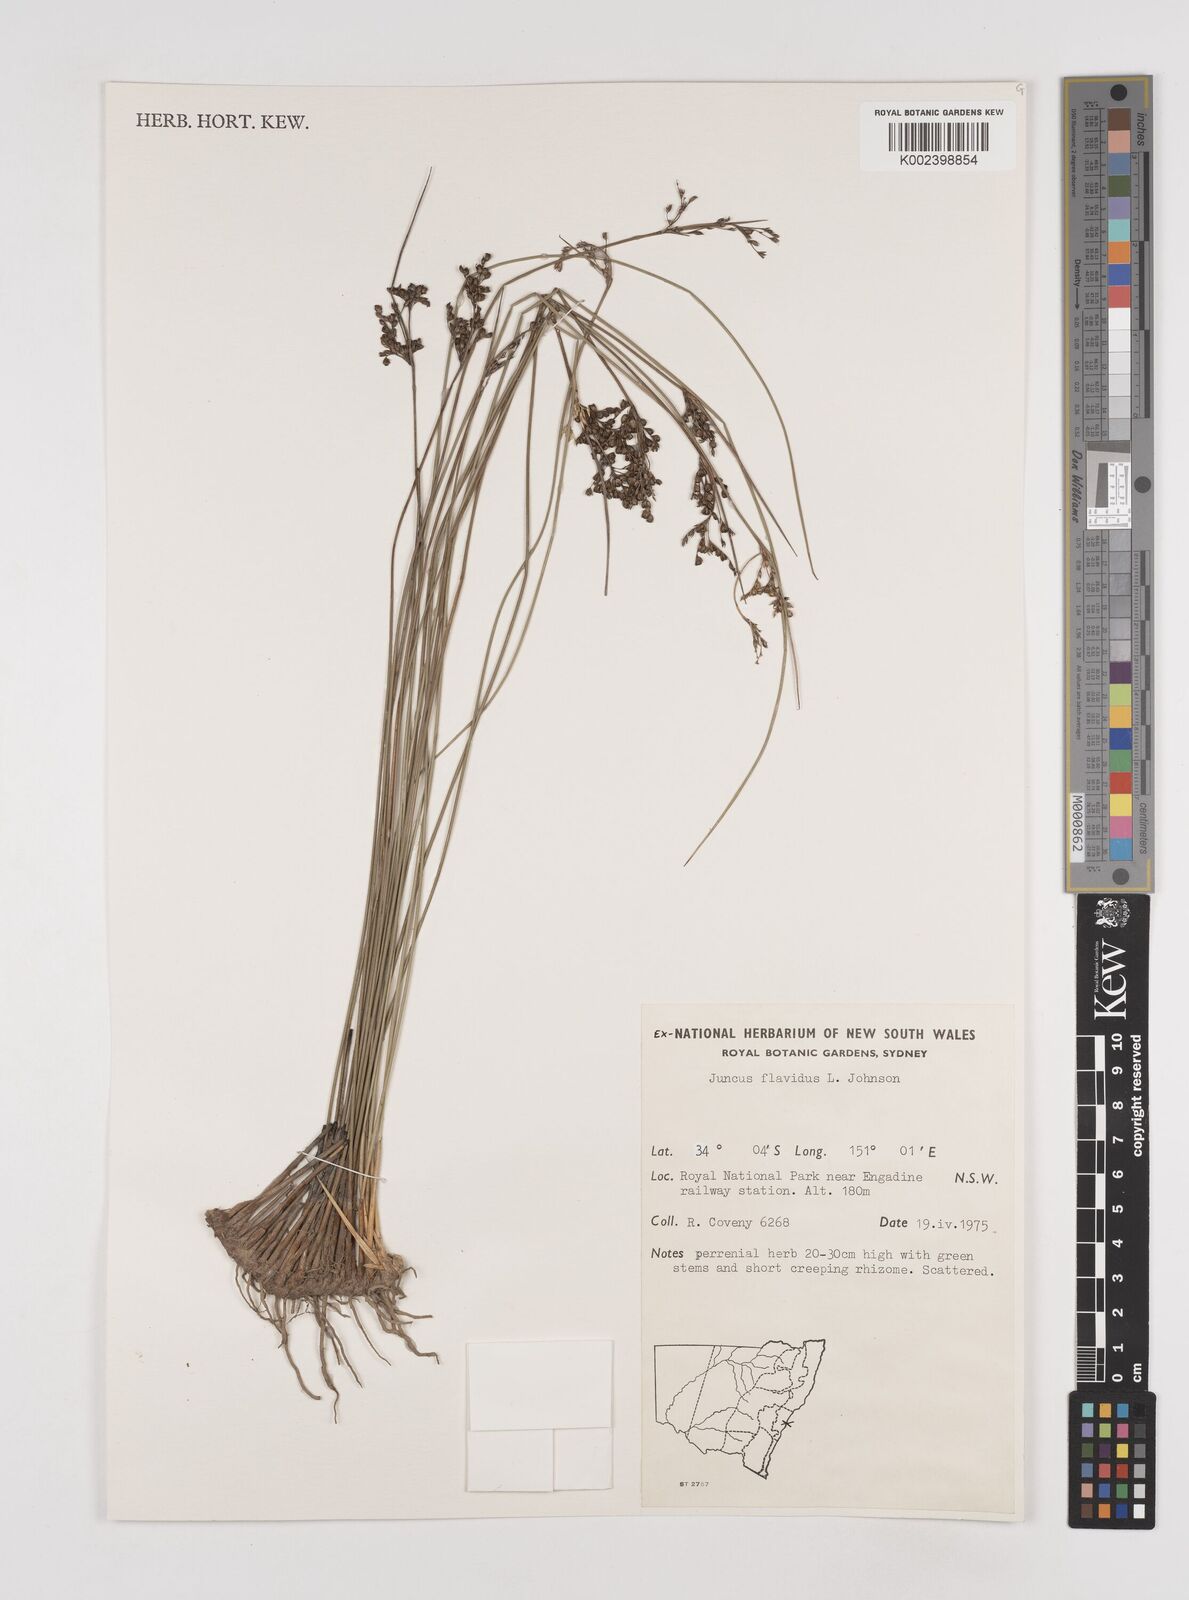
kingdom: Plantae
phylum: Tracheophyta
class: Liliopsida
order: Poales
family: Juncaceae
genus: Juncus
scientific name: Juncus flavidus
